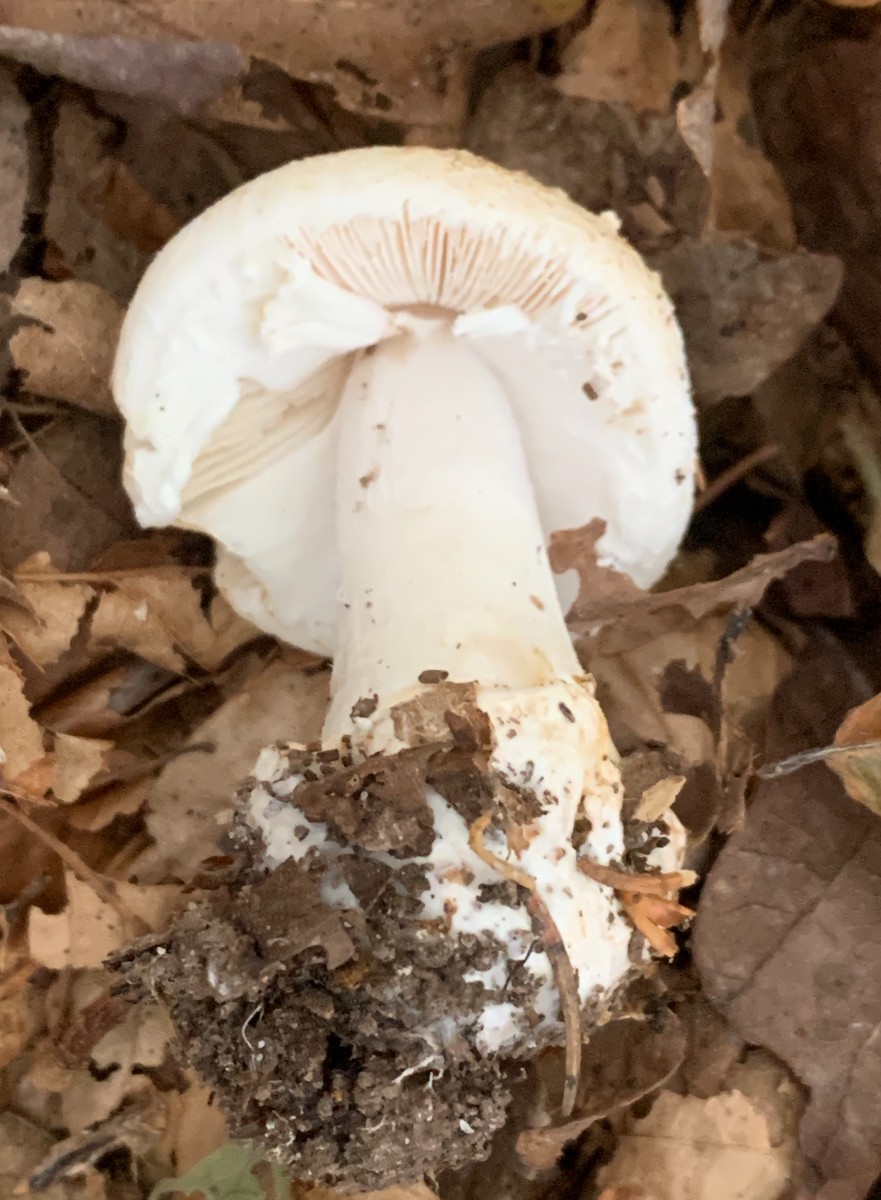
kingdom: Fungi
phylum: Basidiomycota
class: Agaricomycetes
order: Agaricales
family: Amanitaceae
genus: Amanita
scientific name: Amanita citrina
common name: kugleknoldet fluesvamp
